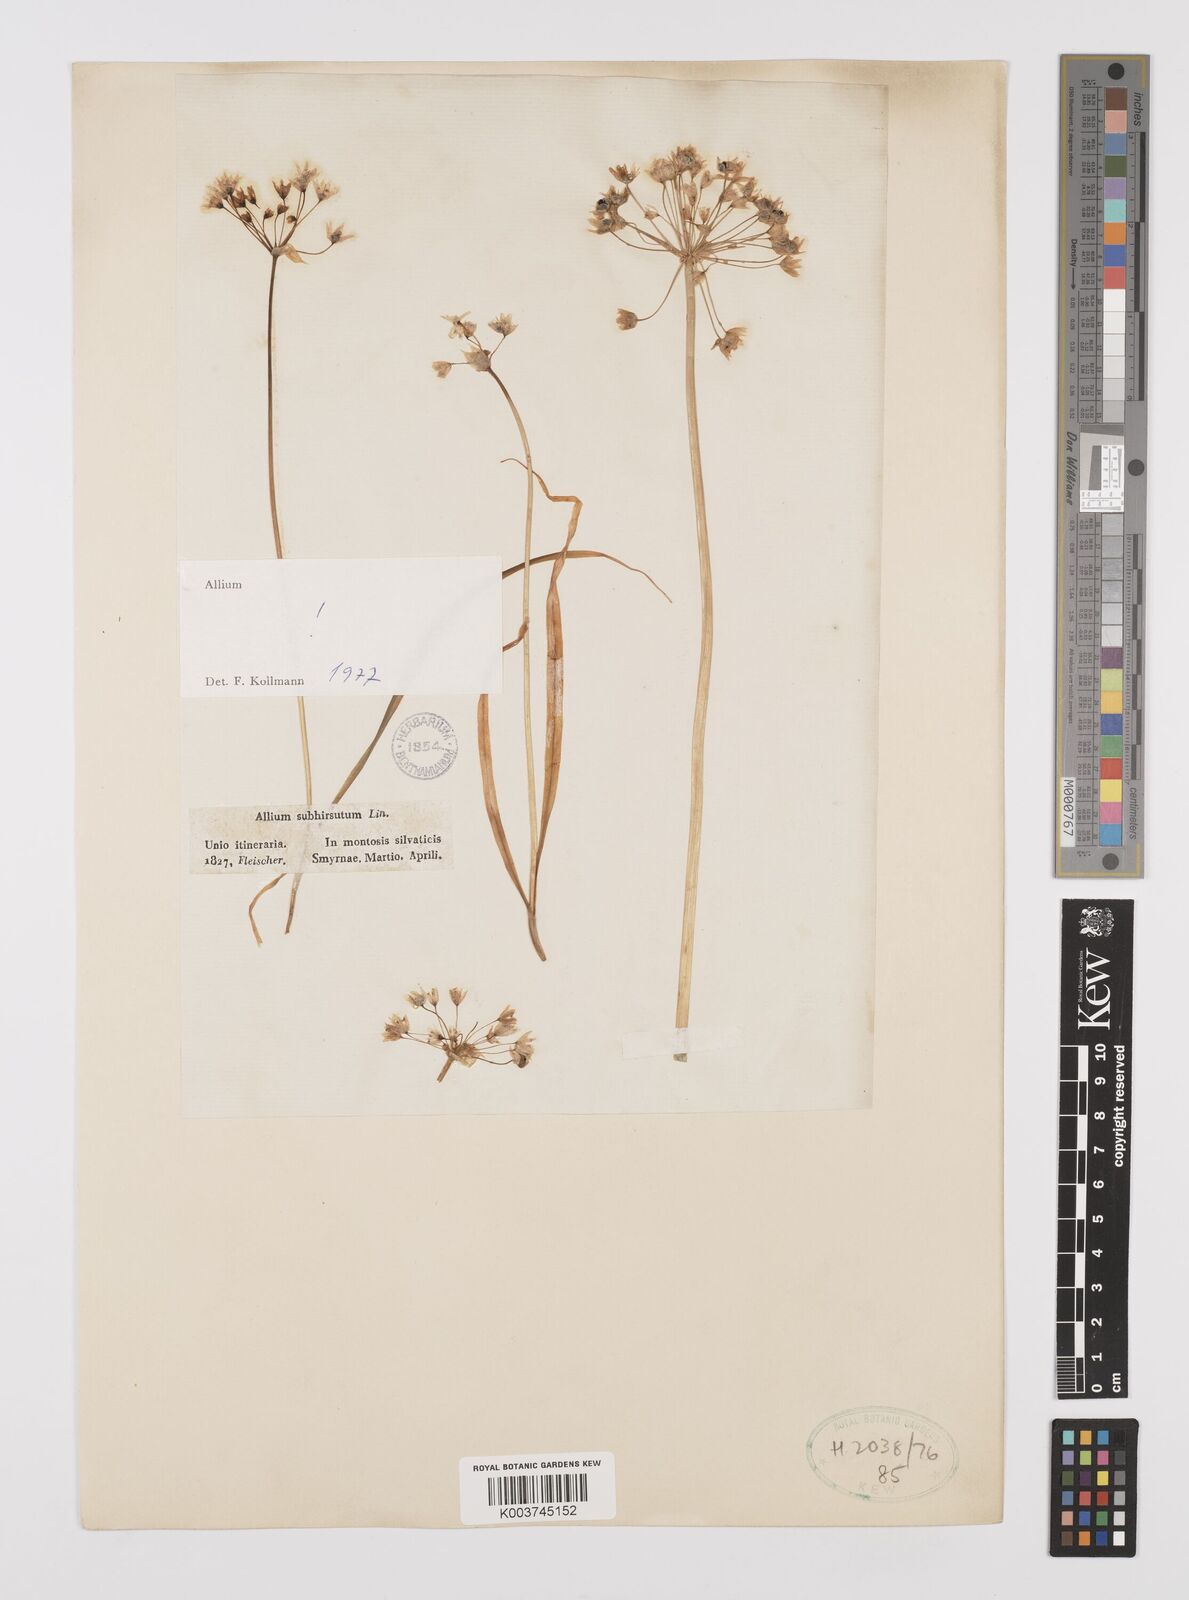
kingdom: Plantae
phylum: Tracheophyta
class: Liliopsida
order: Asparagales
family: Amaryllidaceae
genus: Allium
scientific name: Allium subhirsutum
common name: Hairy garlic
